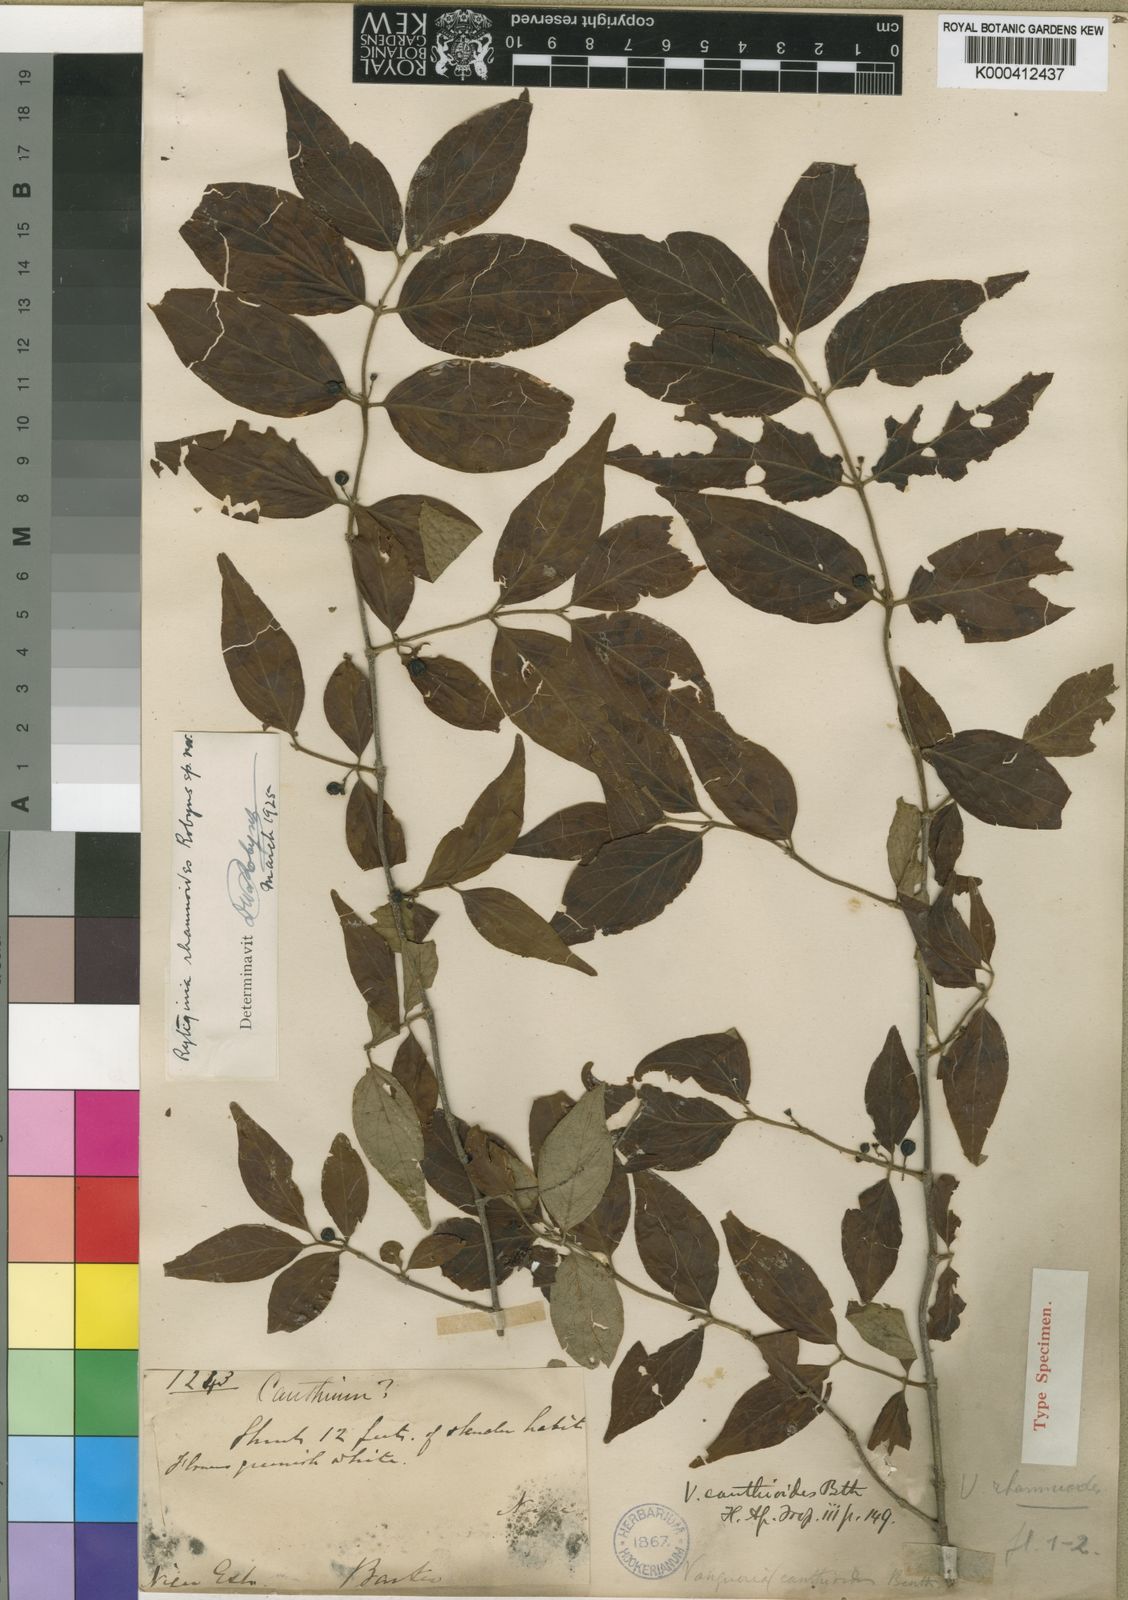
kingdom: Plantae
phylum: Tracheophyta
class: Magnoliopsida
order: Gentianales
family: Rubiaceae
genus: Rytigynia
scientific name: Rytigynia rhamnoides
